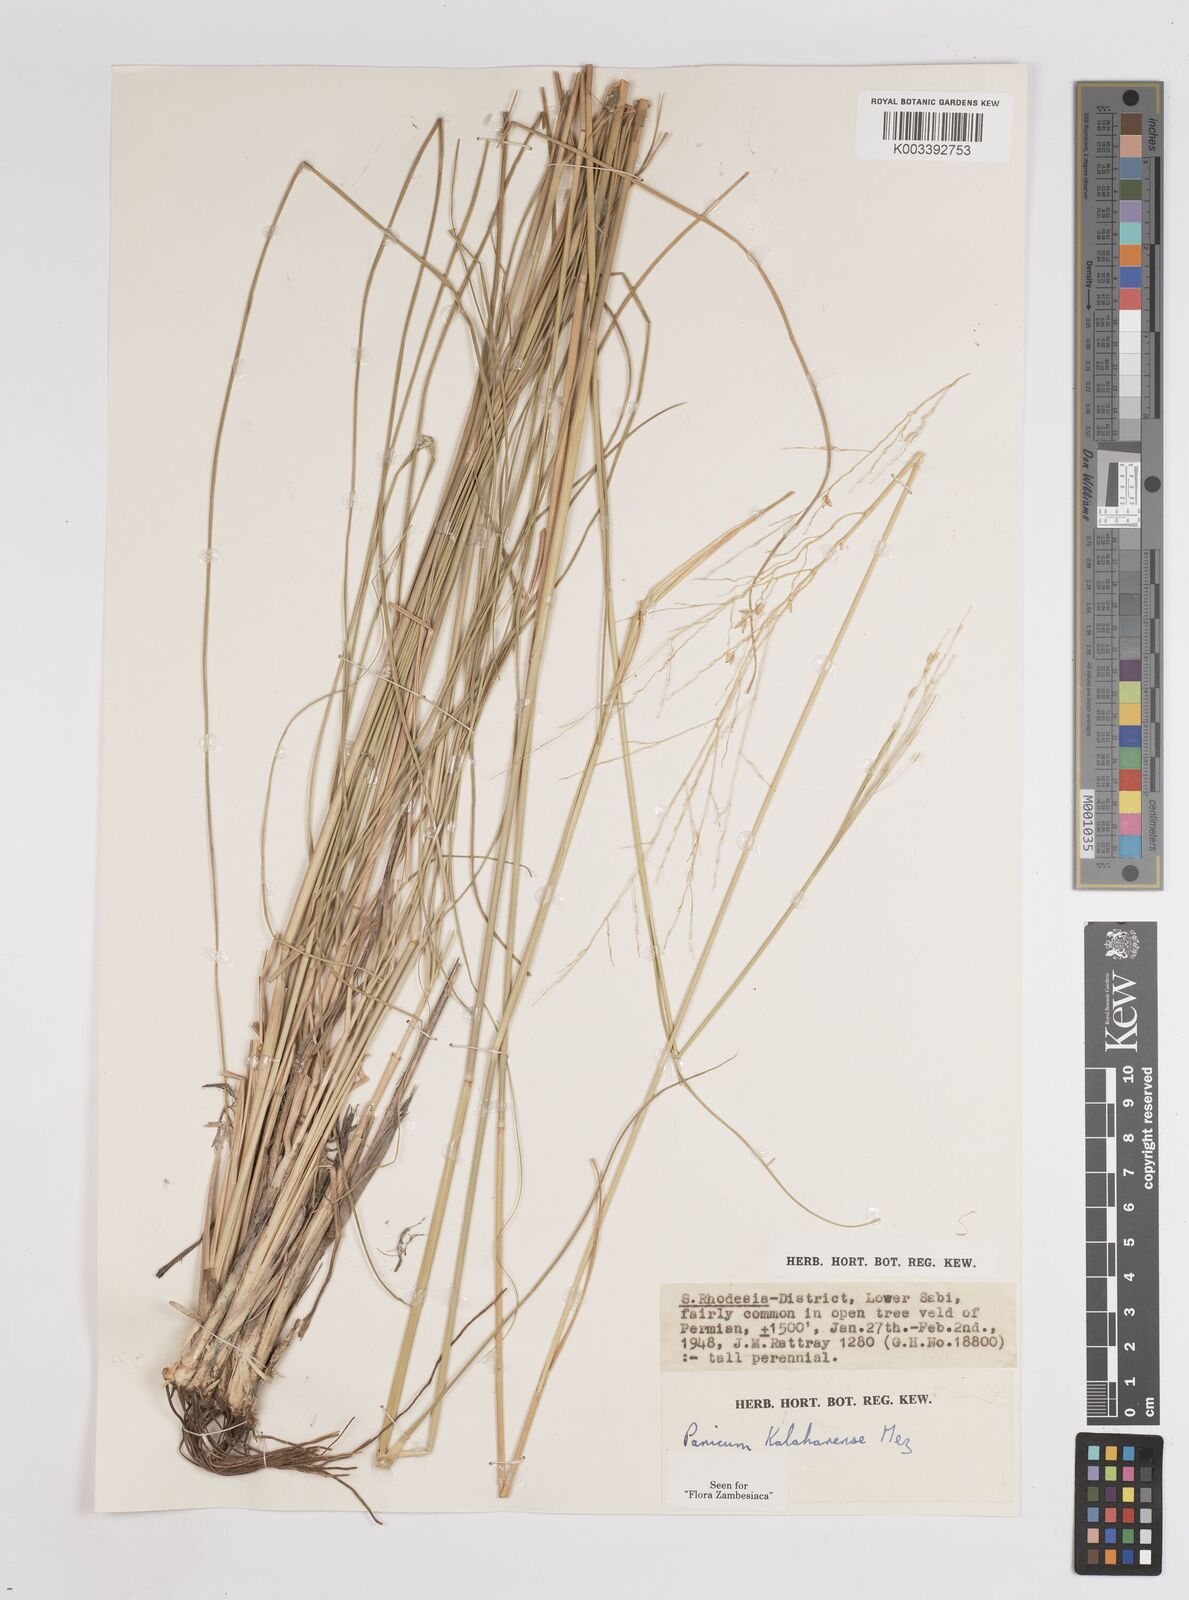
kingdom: Plantae
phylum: Tracheophyta
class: Liliopsida
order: Poales
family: Poaceae
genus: Panicum
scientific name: Panicum kalaharense
